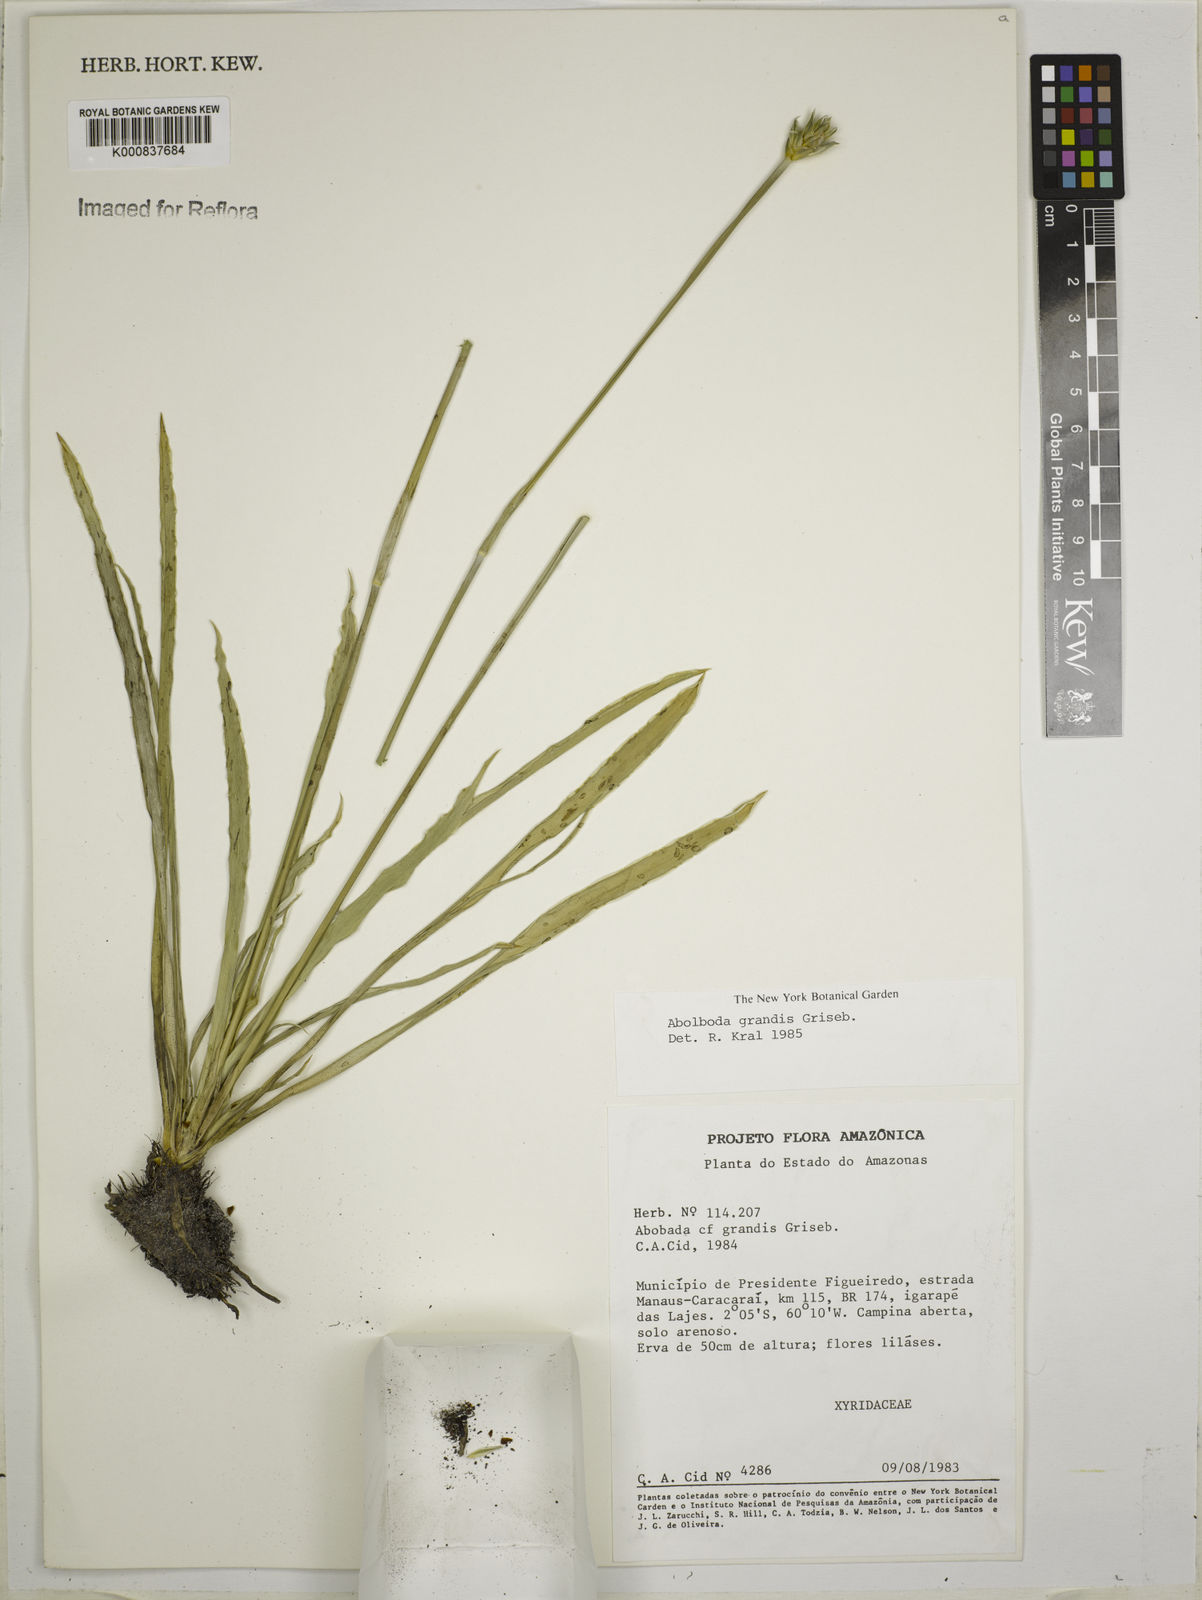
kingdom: Plantae
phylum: Tracheophyta
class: Liliopsida
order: Poales
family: Xyridaceae
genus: Abolboda
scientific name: Abolboda grandis
